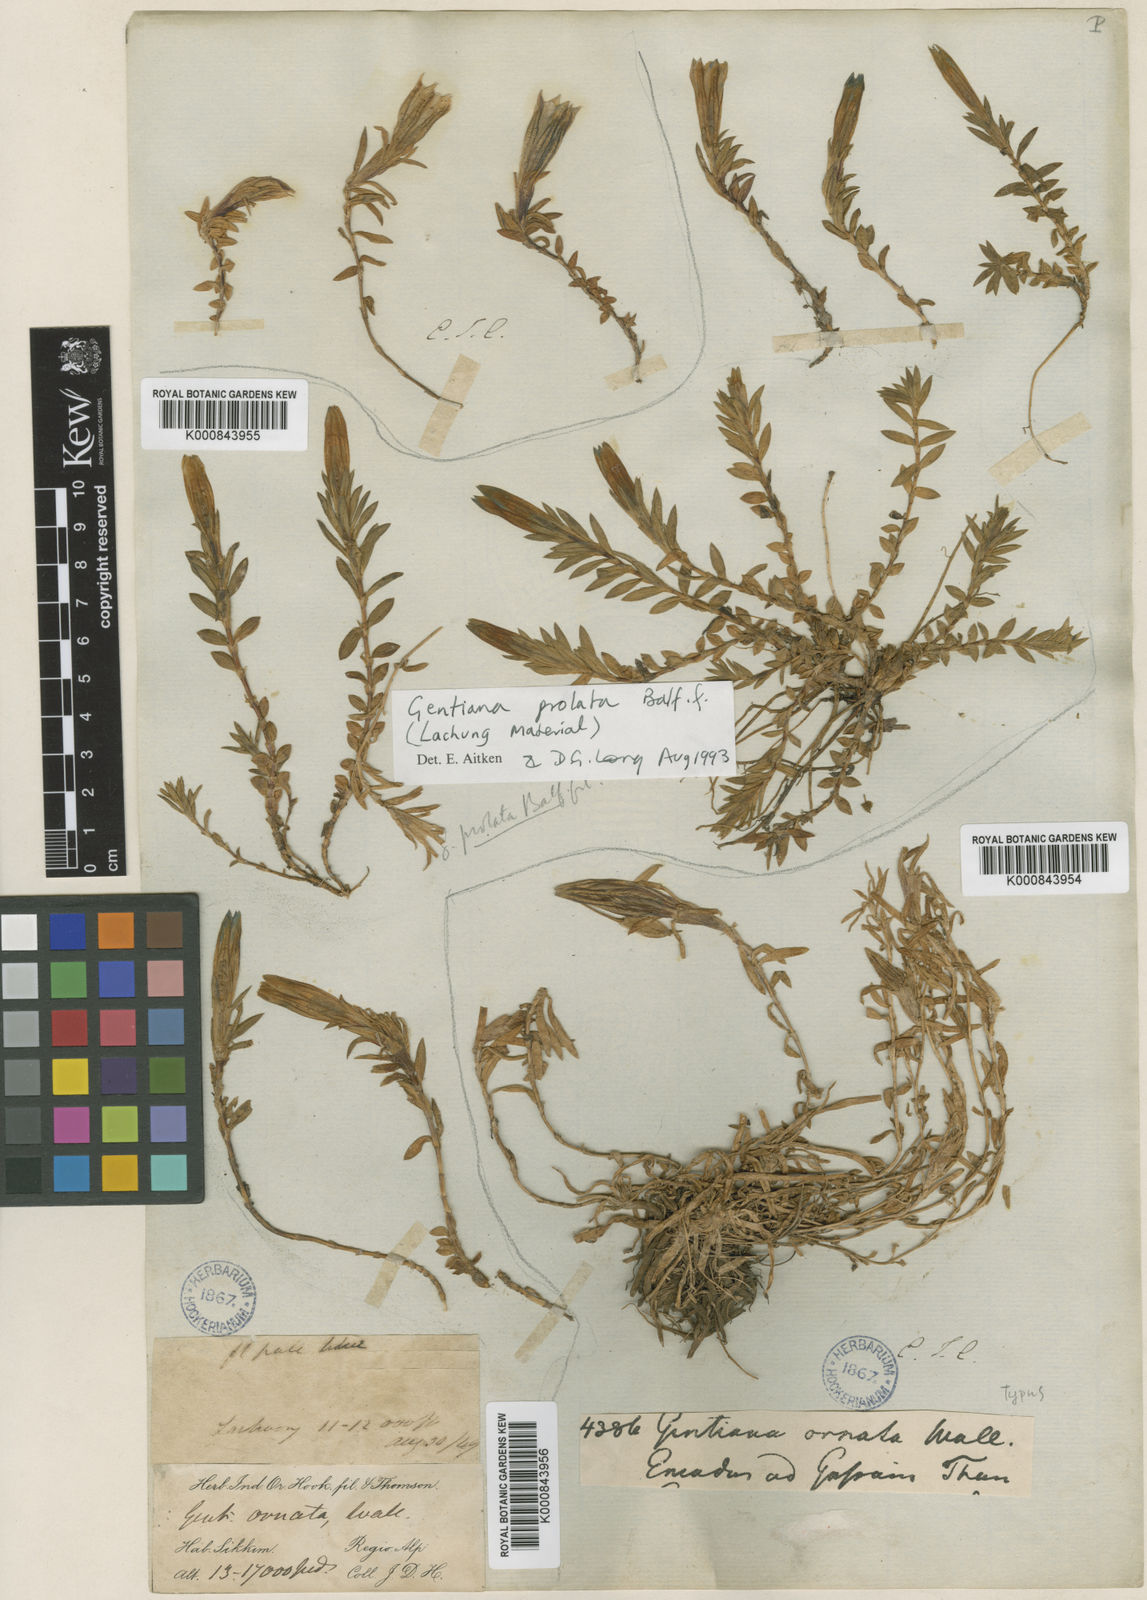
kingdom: Plantae
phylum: Tracheophyta
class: Magnoliopsida
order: Gentianales
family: Gentianaceae
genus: Gentiana
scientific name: Gentiana ornata
